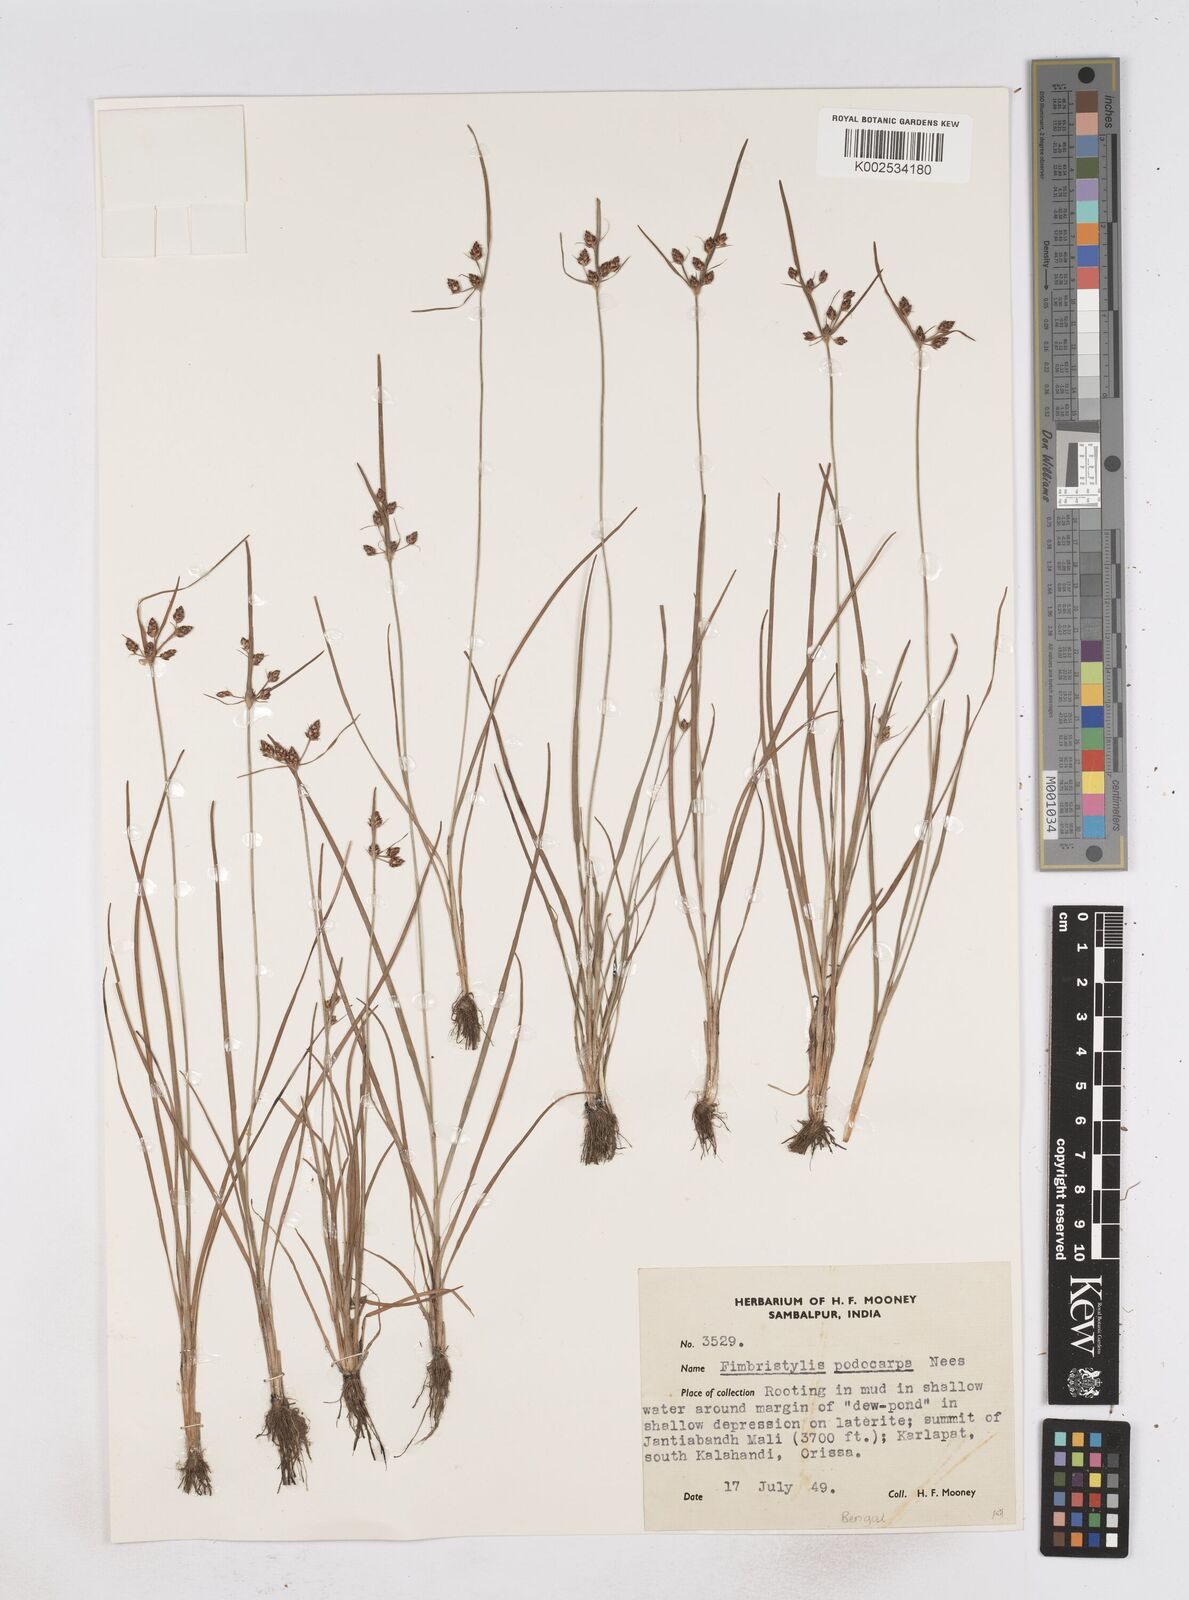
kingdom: Plantae
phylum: Tracheophyta
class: Liliopsida
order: Poales
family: Cyperaceae
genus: Fimbristylis
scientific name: Fimbristylis dichotoma
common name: Forked fimbry
